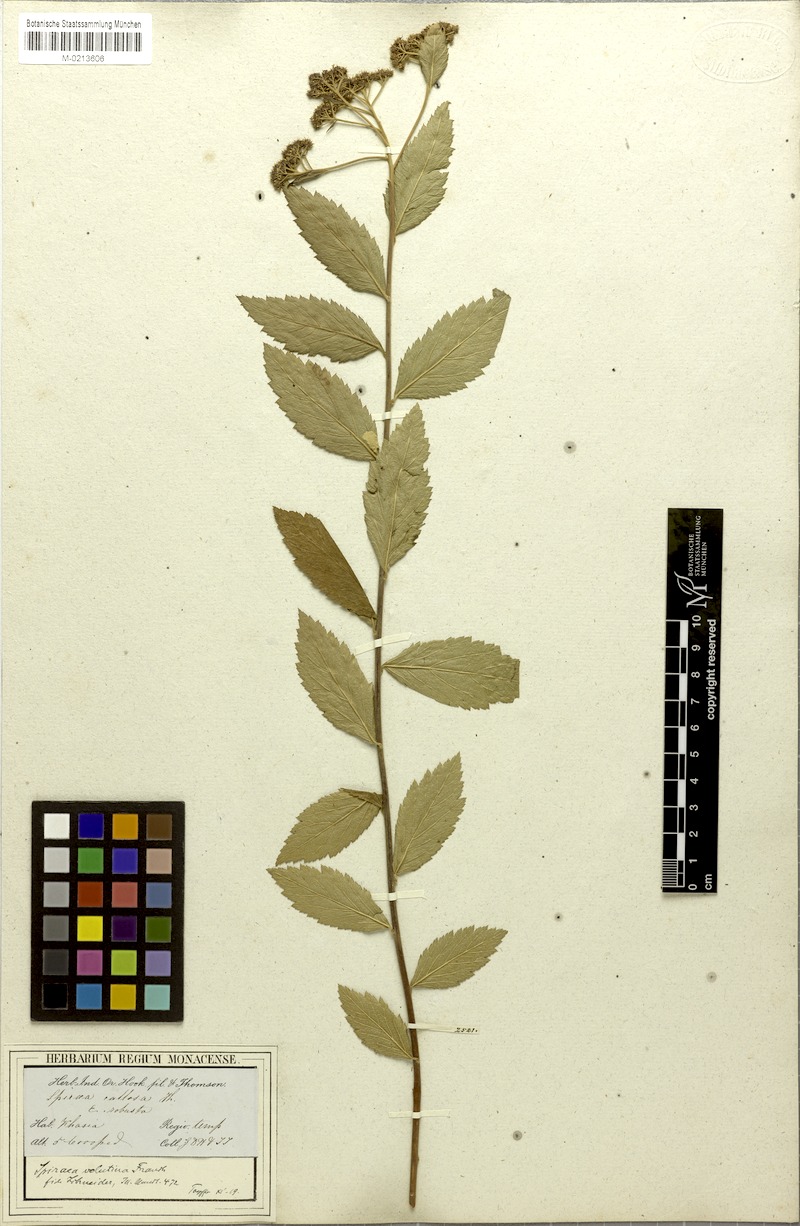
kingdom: Plantae
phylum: Tracheophyta
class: Magnoliopsida
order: Rosales
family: Rosaceae
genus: Spiraea
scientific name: Spiraea velutina
